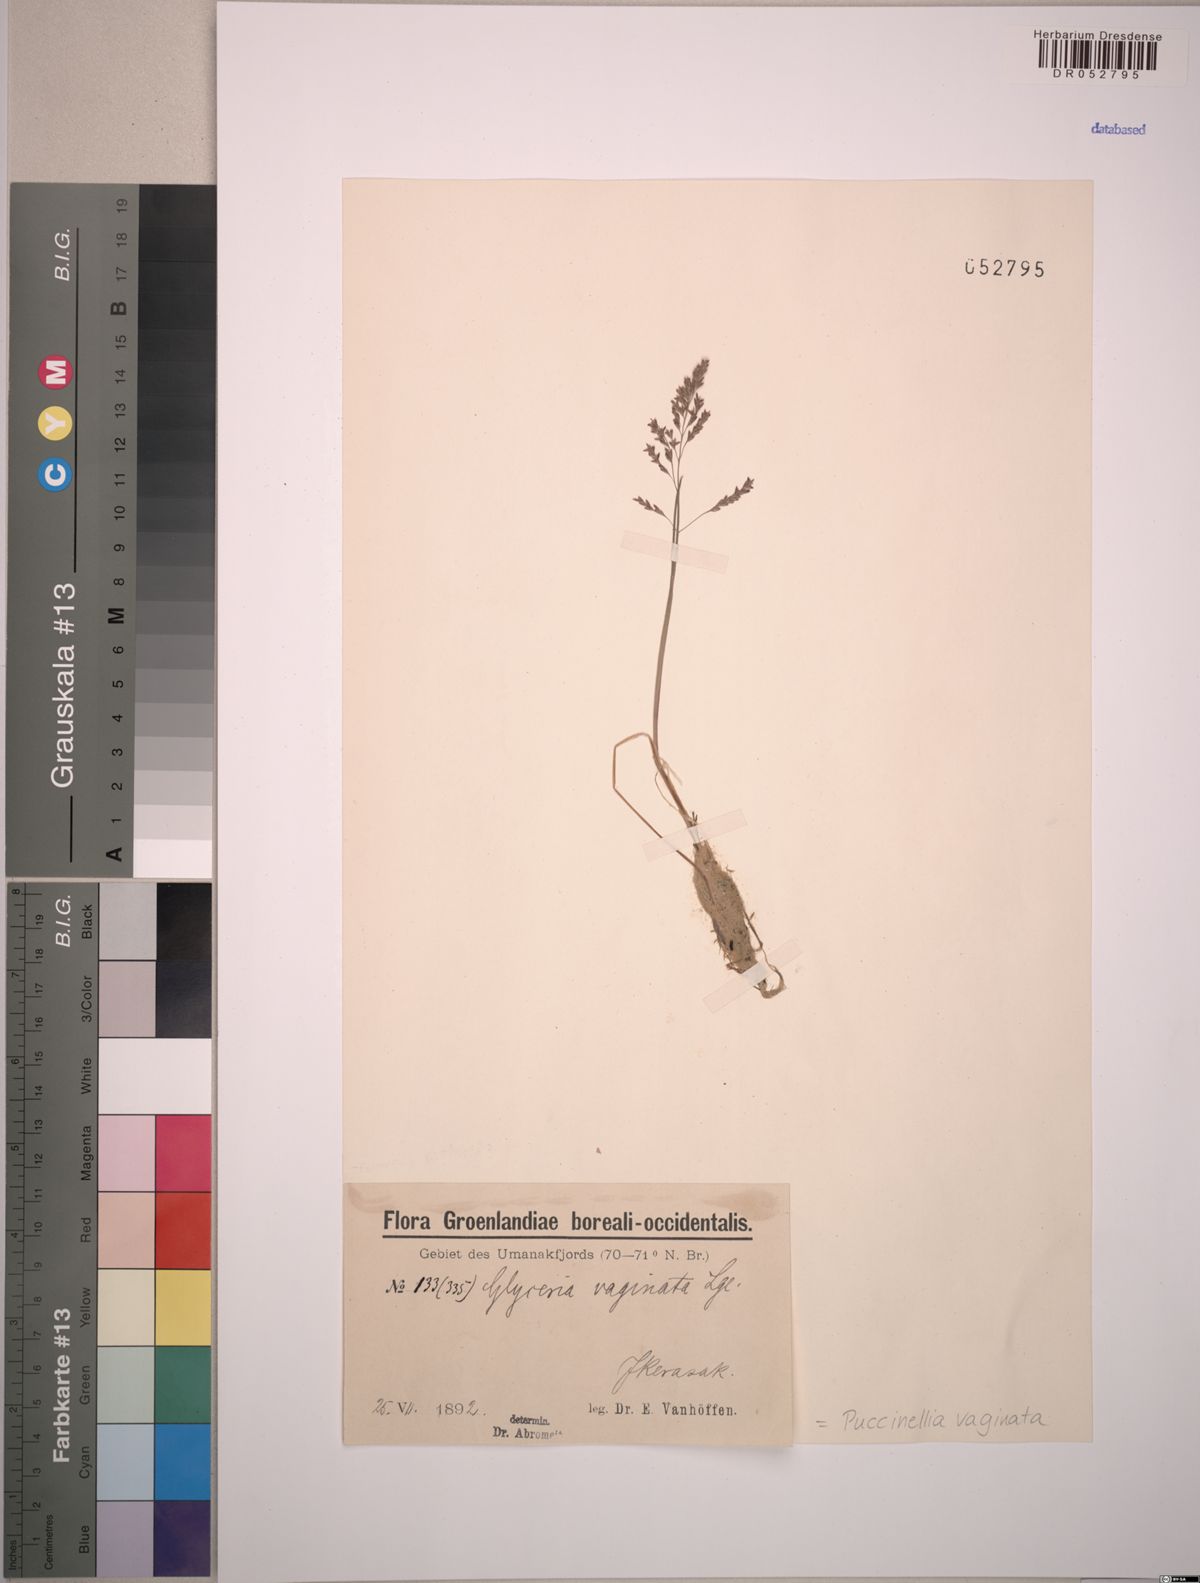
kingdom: Plantae
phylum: Tracheophyta
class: Liliopsida
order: Poales
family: Poaceae
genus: Puccinellia
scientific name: Puccinellia vaginata
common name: Arctic tussock alkaligrass
